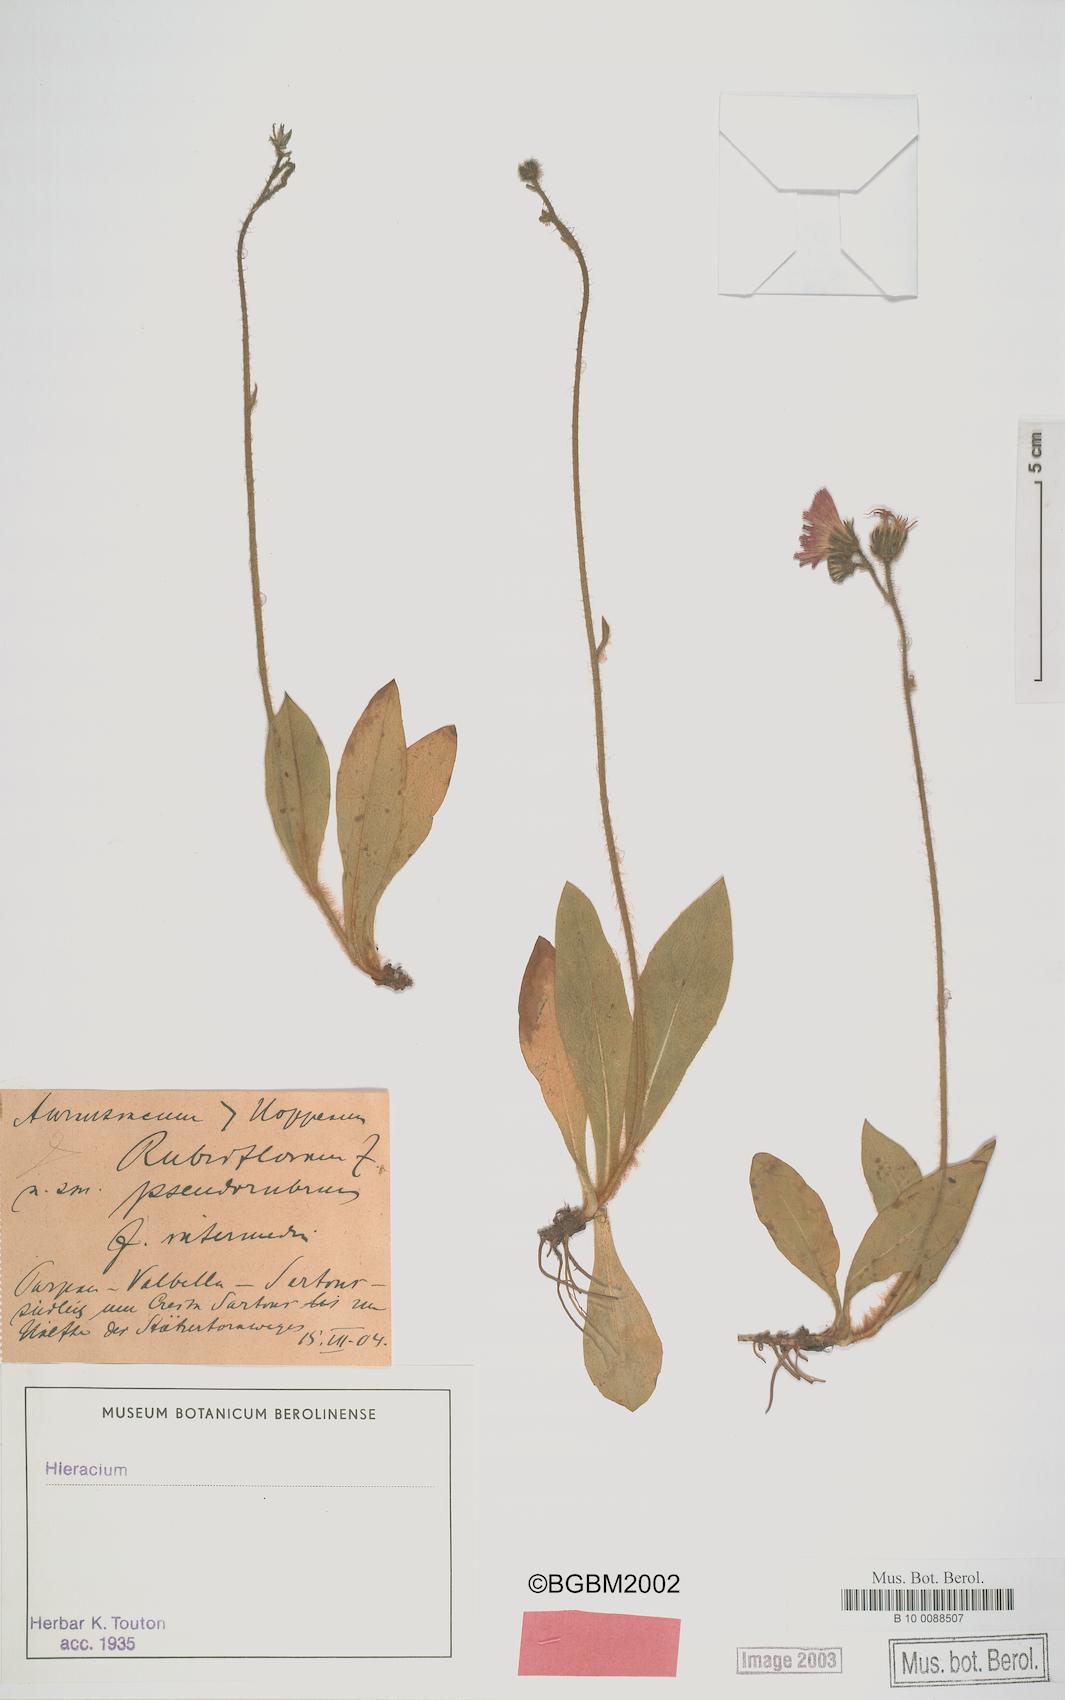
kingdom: Plantae
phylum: Tracheophyta
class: Magnoliopsida
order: Asterales
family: Asteraceae
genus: Pilosella
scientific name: Pilosella rubriflora
